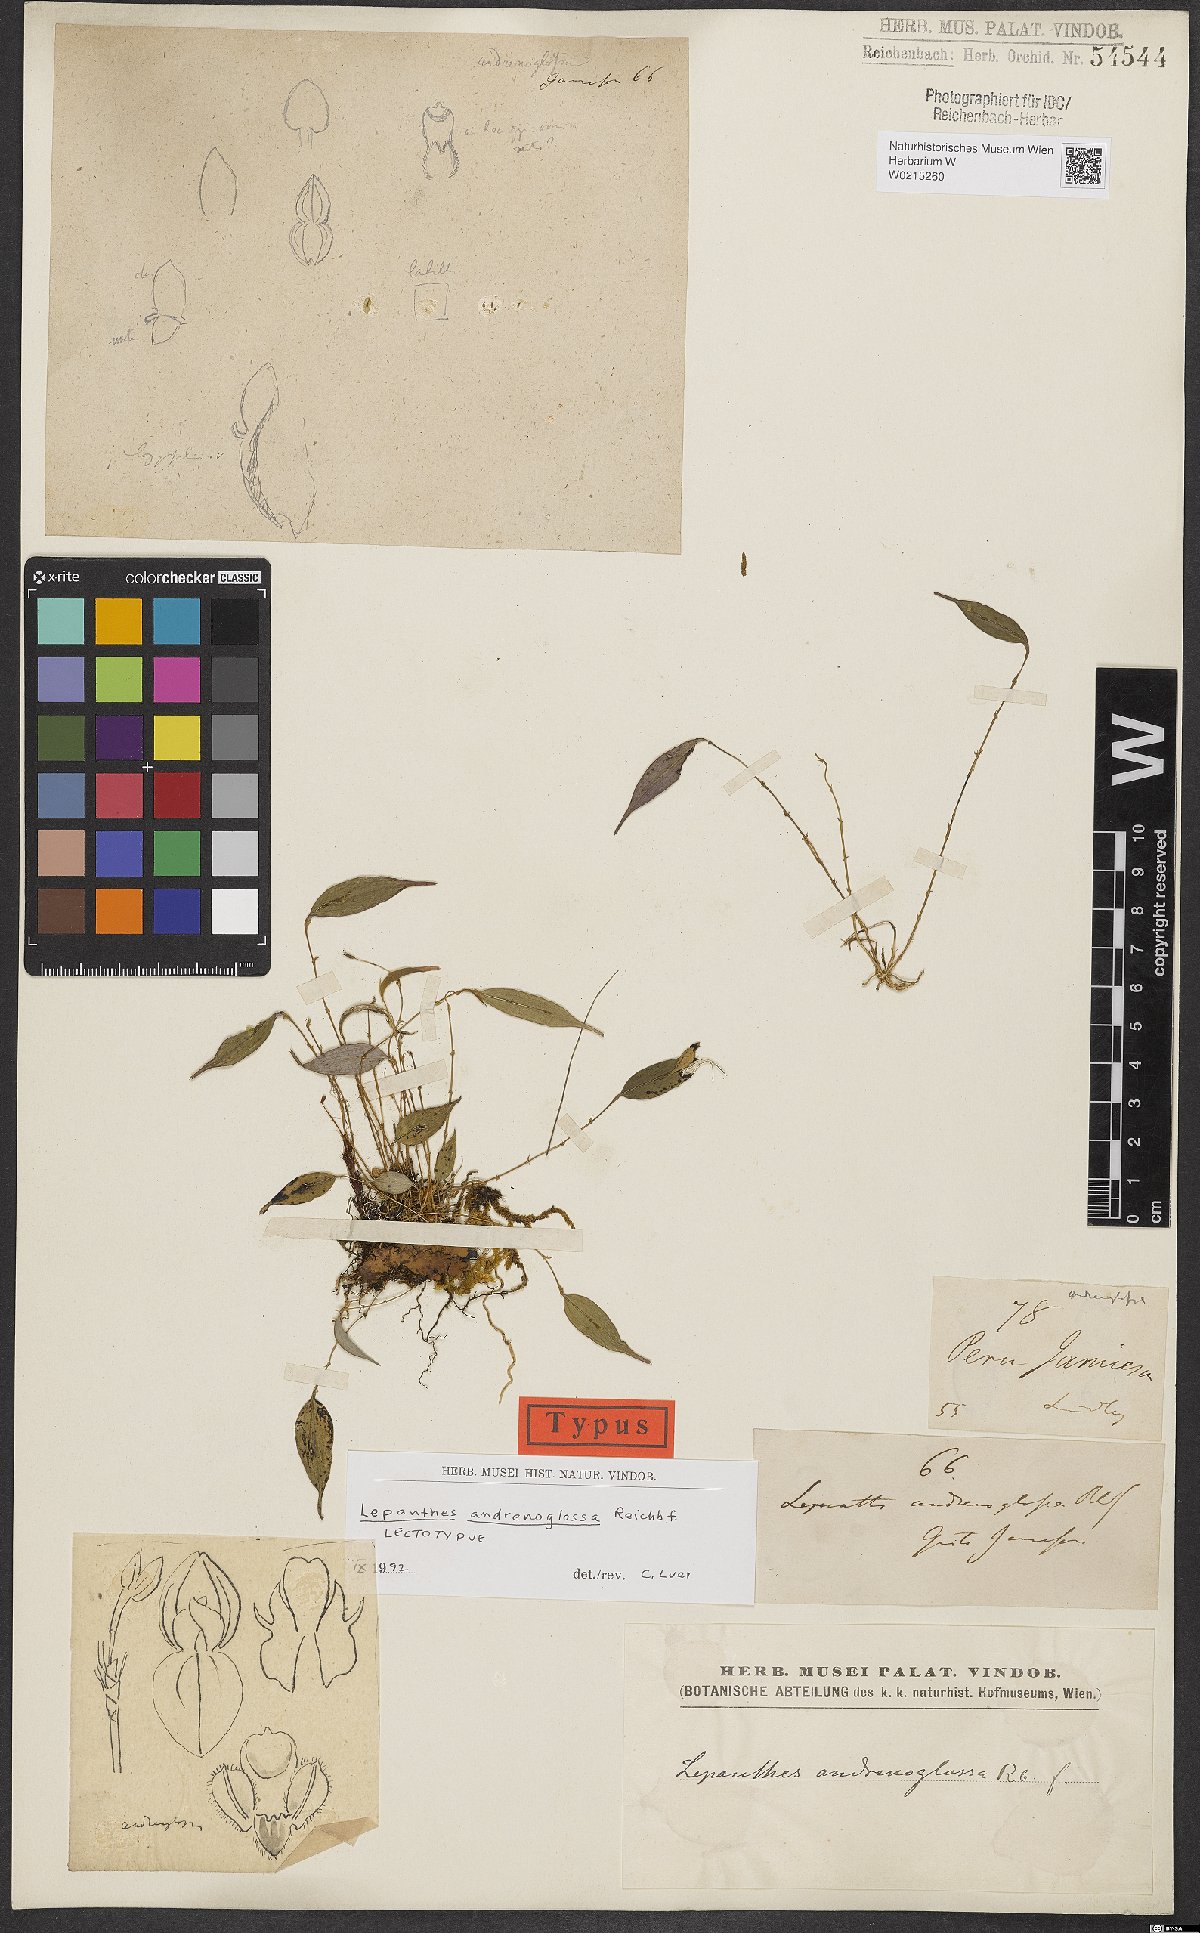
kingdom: Plantae
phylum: Tracheophyta
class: Liliopsida
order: Asparagales
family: Orchidaceae
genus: Pleurothallis
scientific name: Pleurothallis
